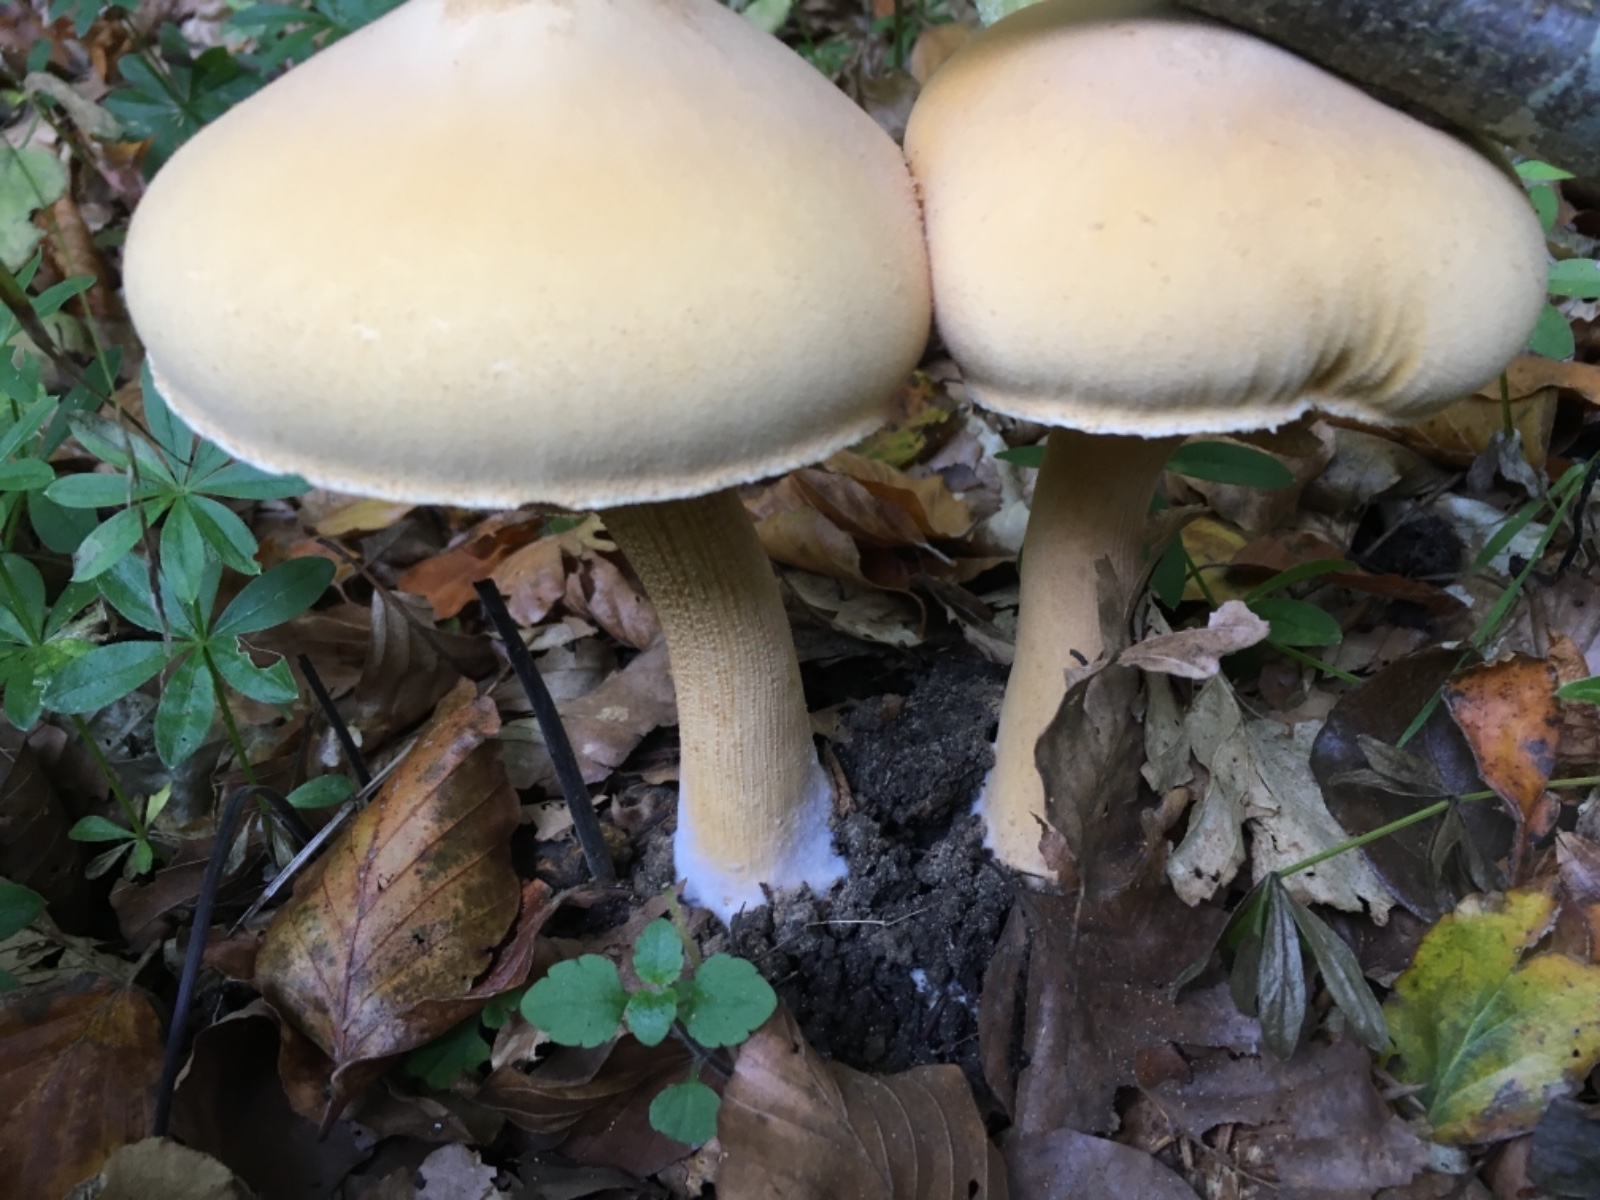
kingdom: Fungi
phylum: Basidiomycota
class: Agaricomycetes
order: Agaricales
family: Tricholomataceae
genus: Phaeolepiota
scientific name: Phaeolepiota
